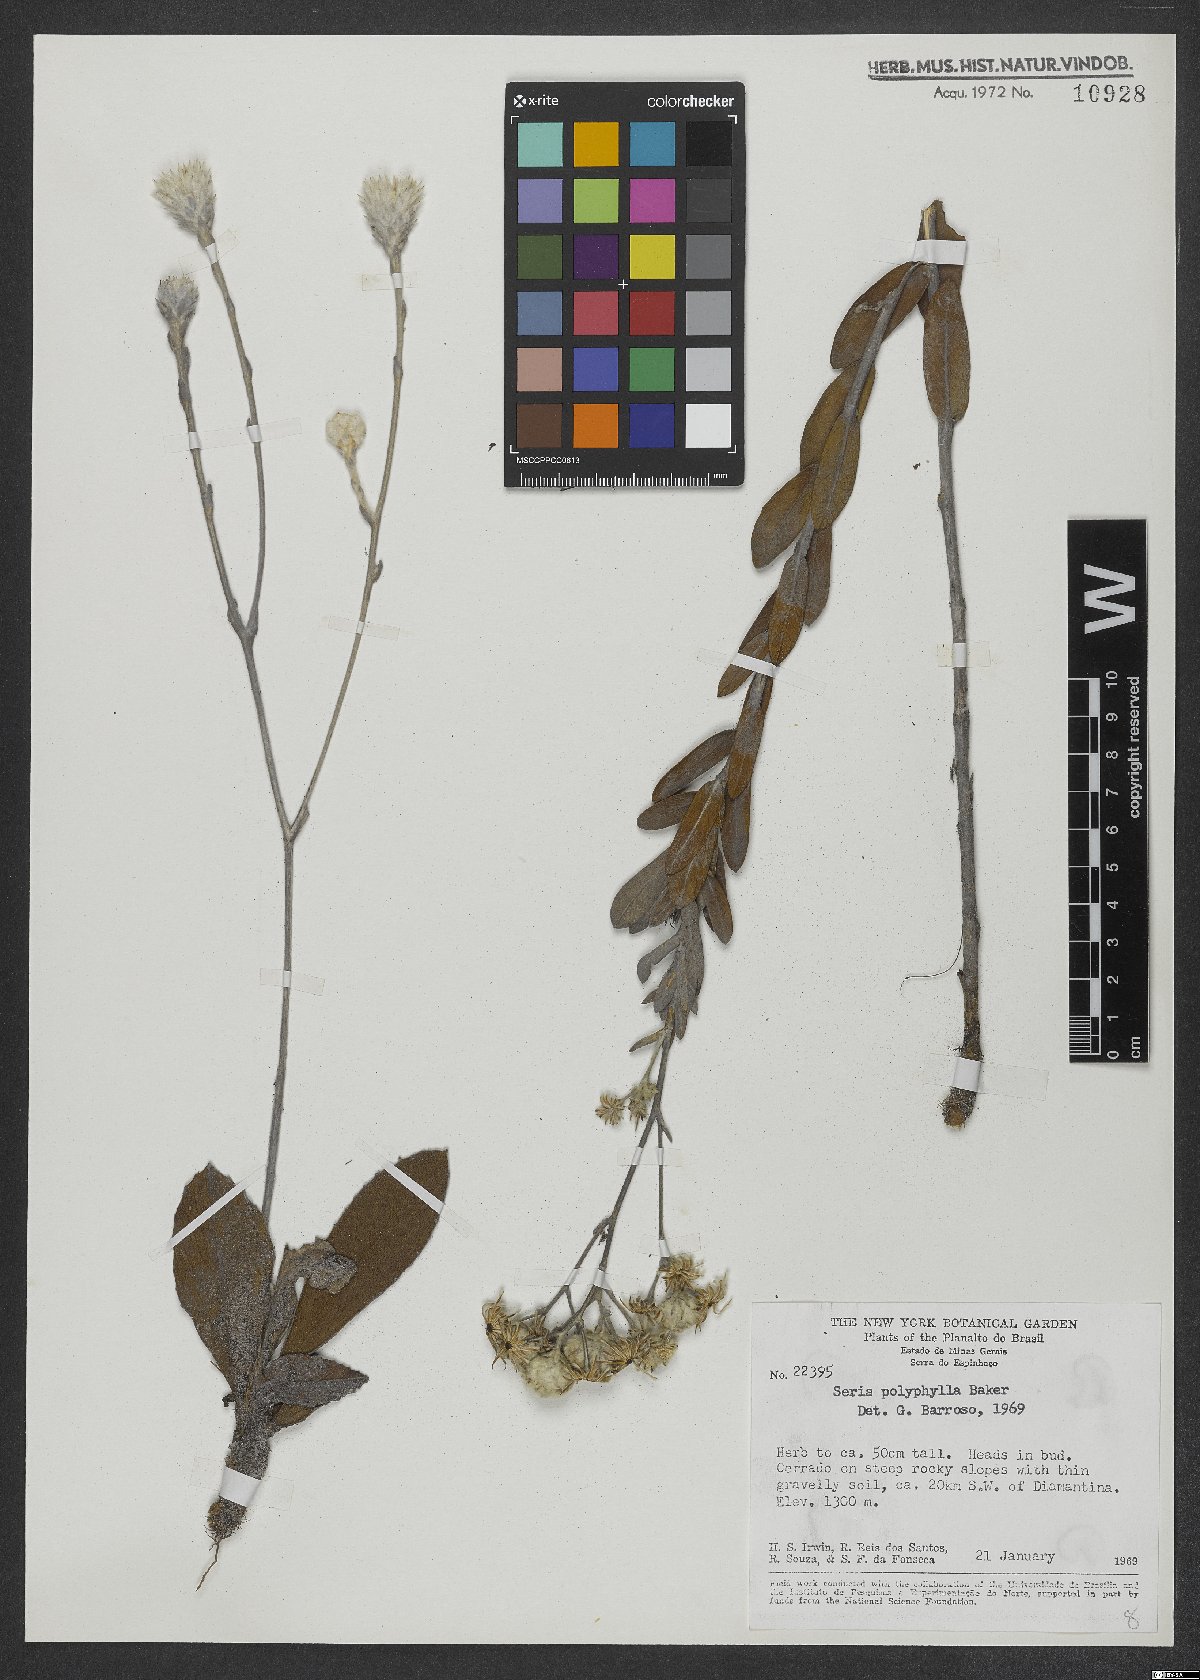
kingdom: Plantae
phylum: Tracheophyta
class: Magnoliopsida
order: Asterales
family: Asteraceae
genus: Richterago
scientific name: Richterago polyphylla
